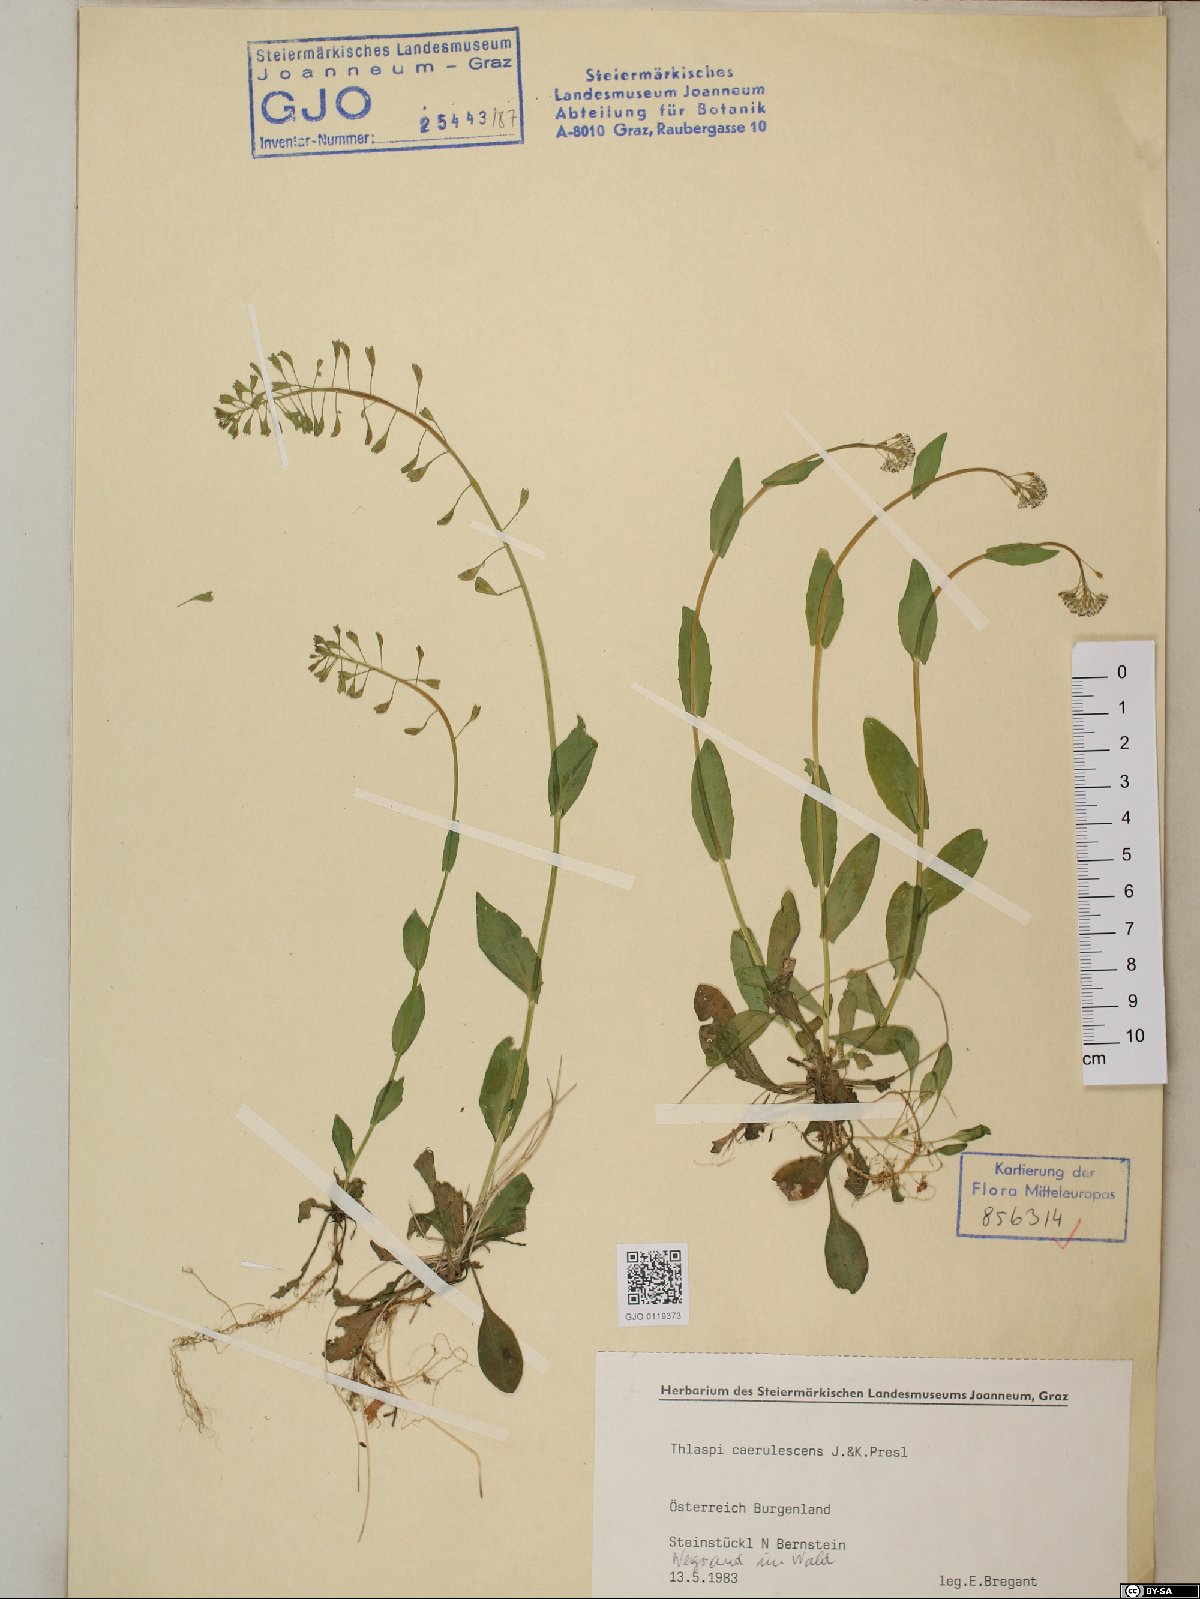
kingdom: Plantae
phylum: Tracheophyta
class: Magnoliopsida
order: Brassicales
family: Brassicaceae
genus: Noccaea
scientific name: Noccaea caerulescens
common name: Alpine pennycress
